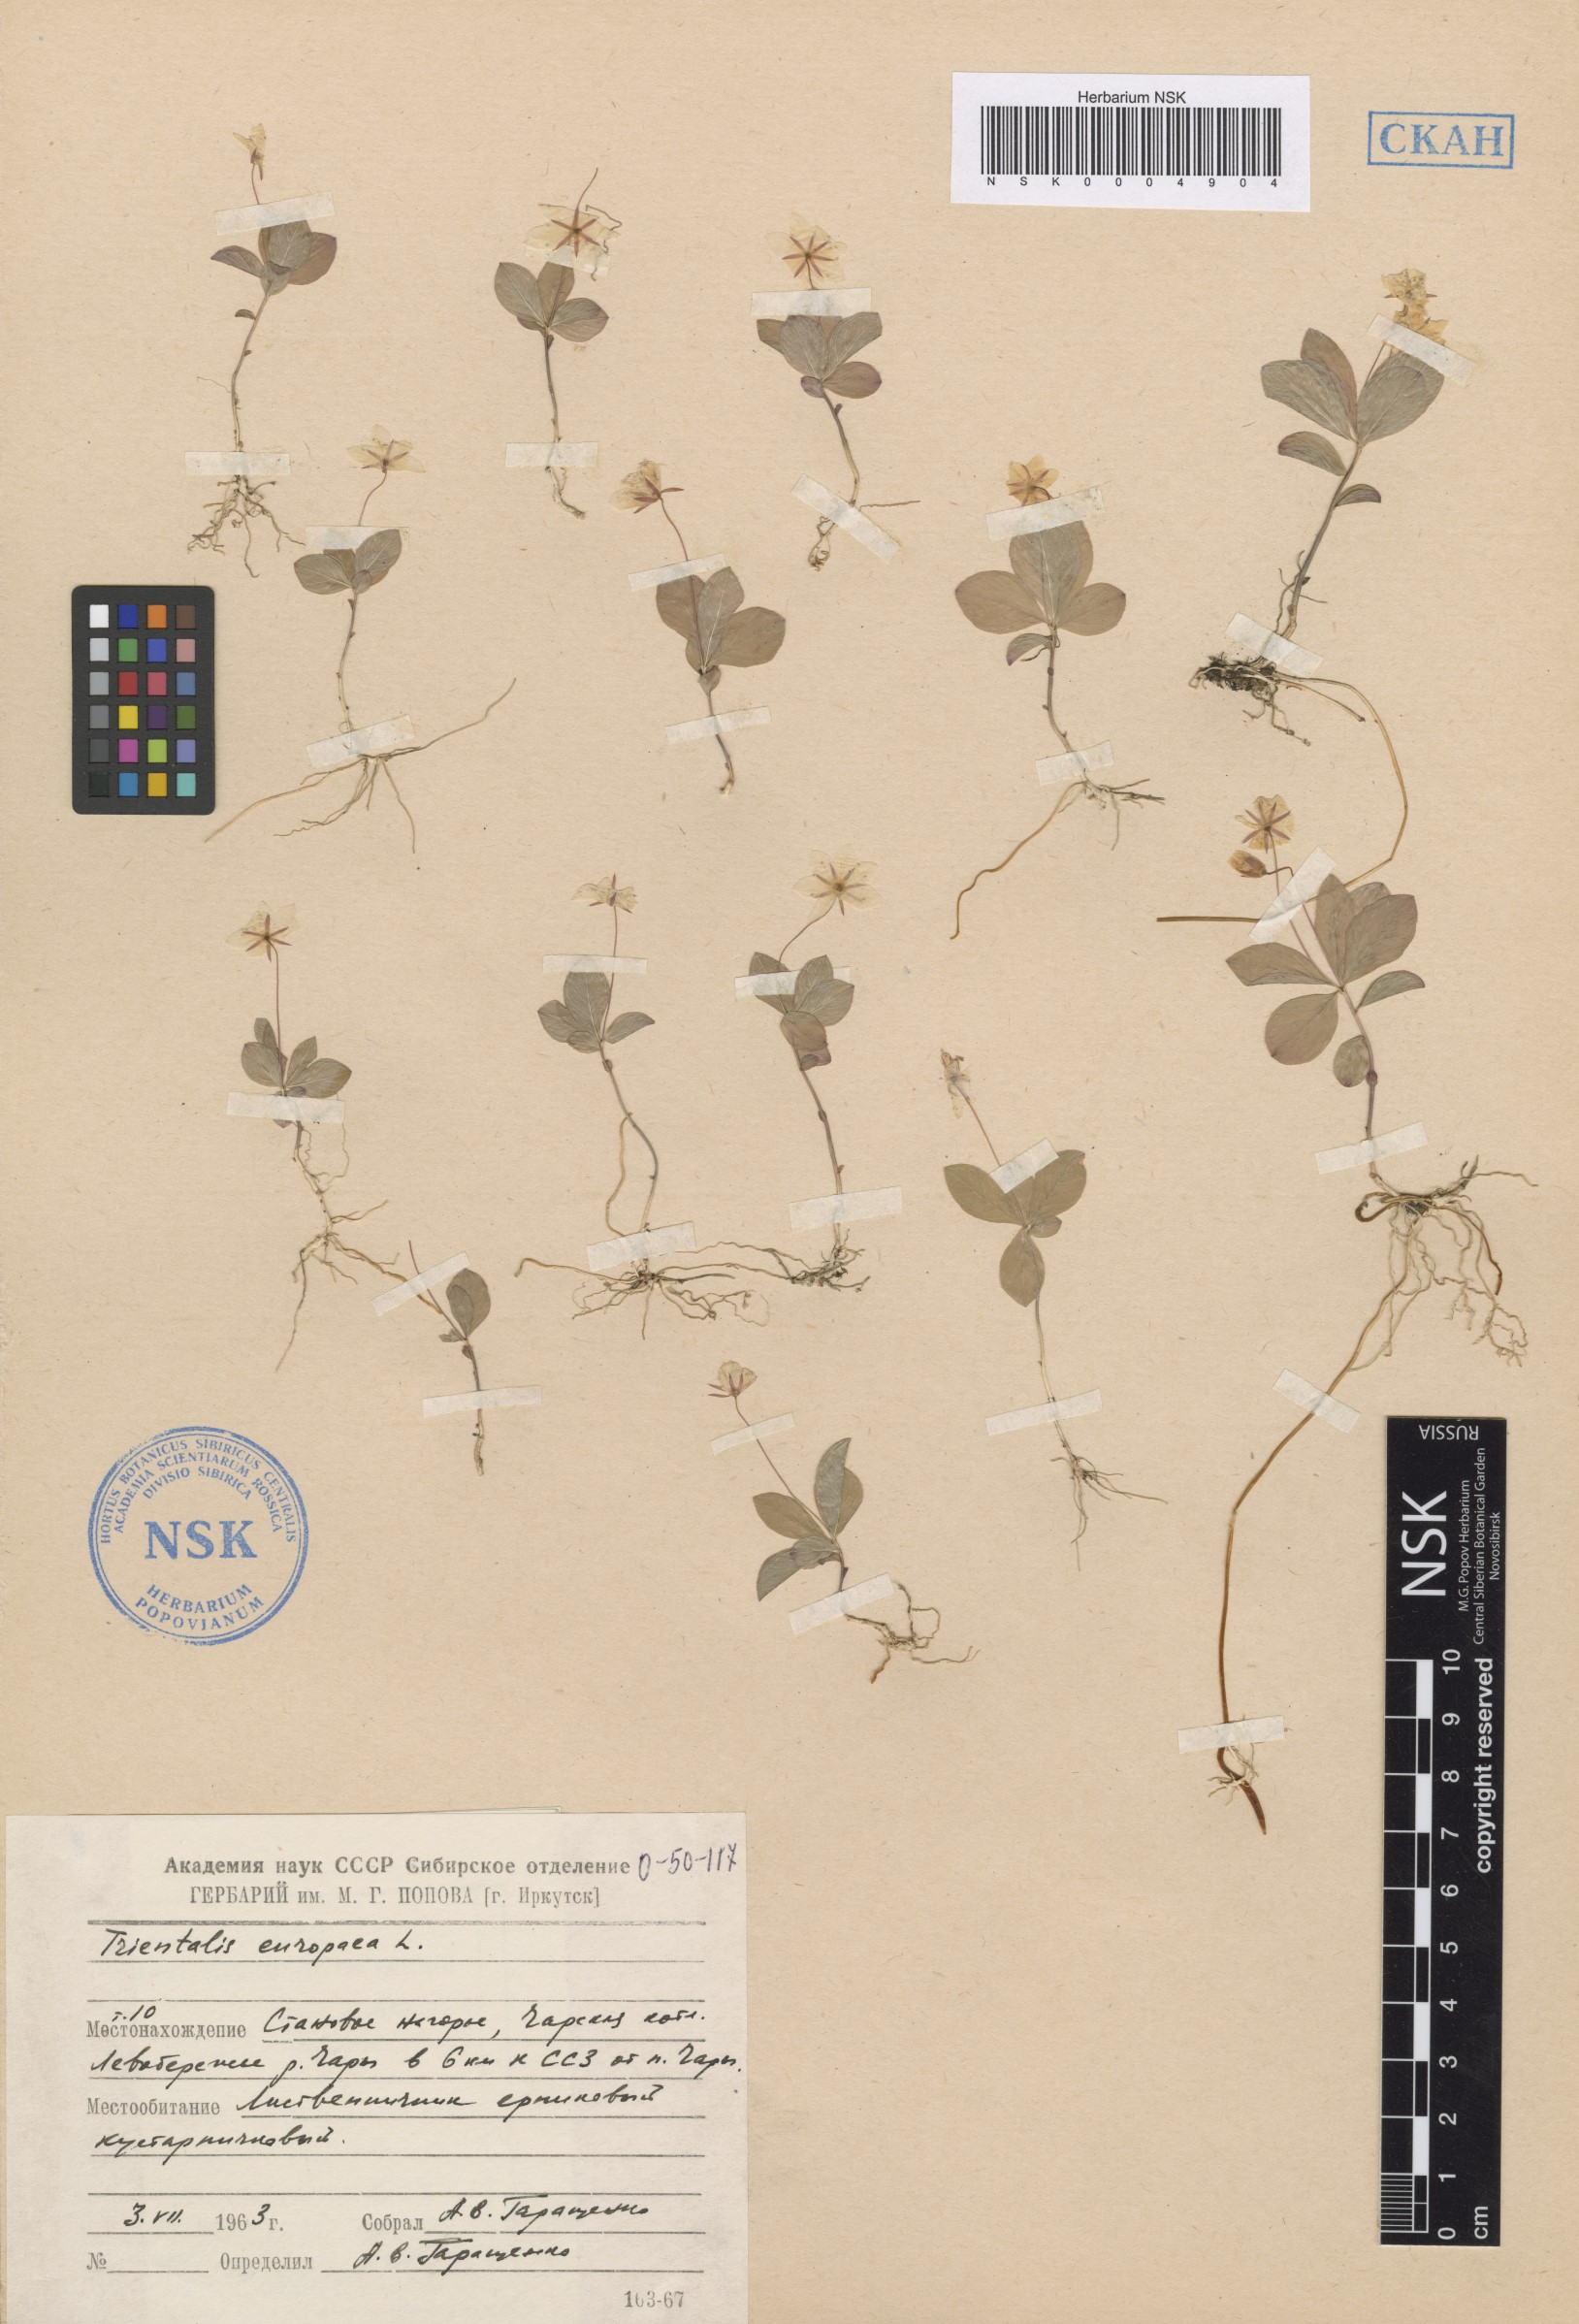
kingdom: Plantae
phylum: Tracheophyta
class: Magnoliopsida
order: Ericales
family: Primulaceae
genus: Lysimachia
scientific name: Lysimachia europaea
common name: Arctic starflower
